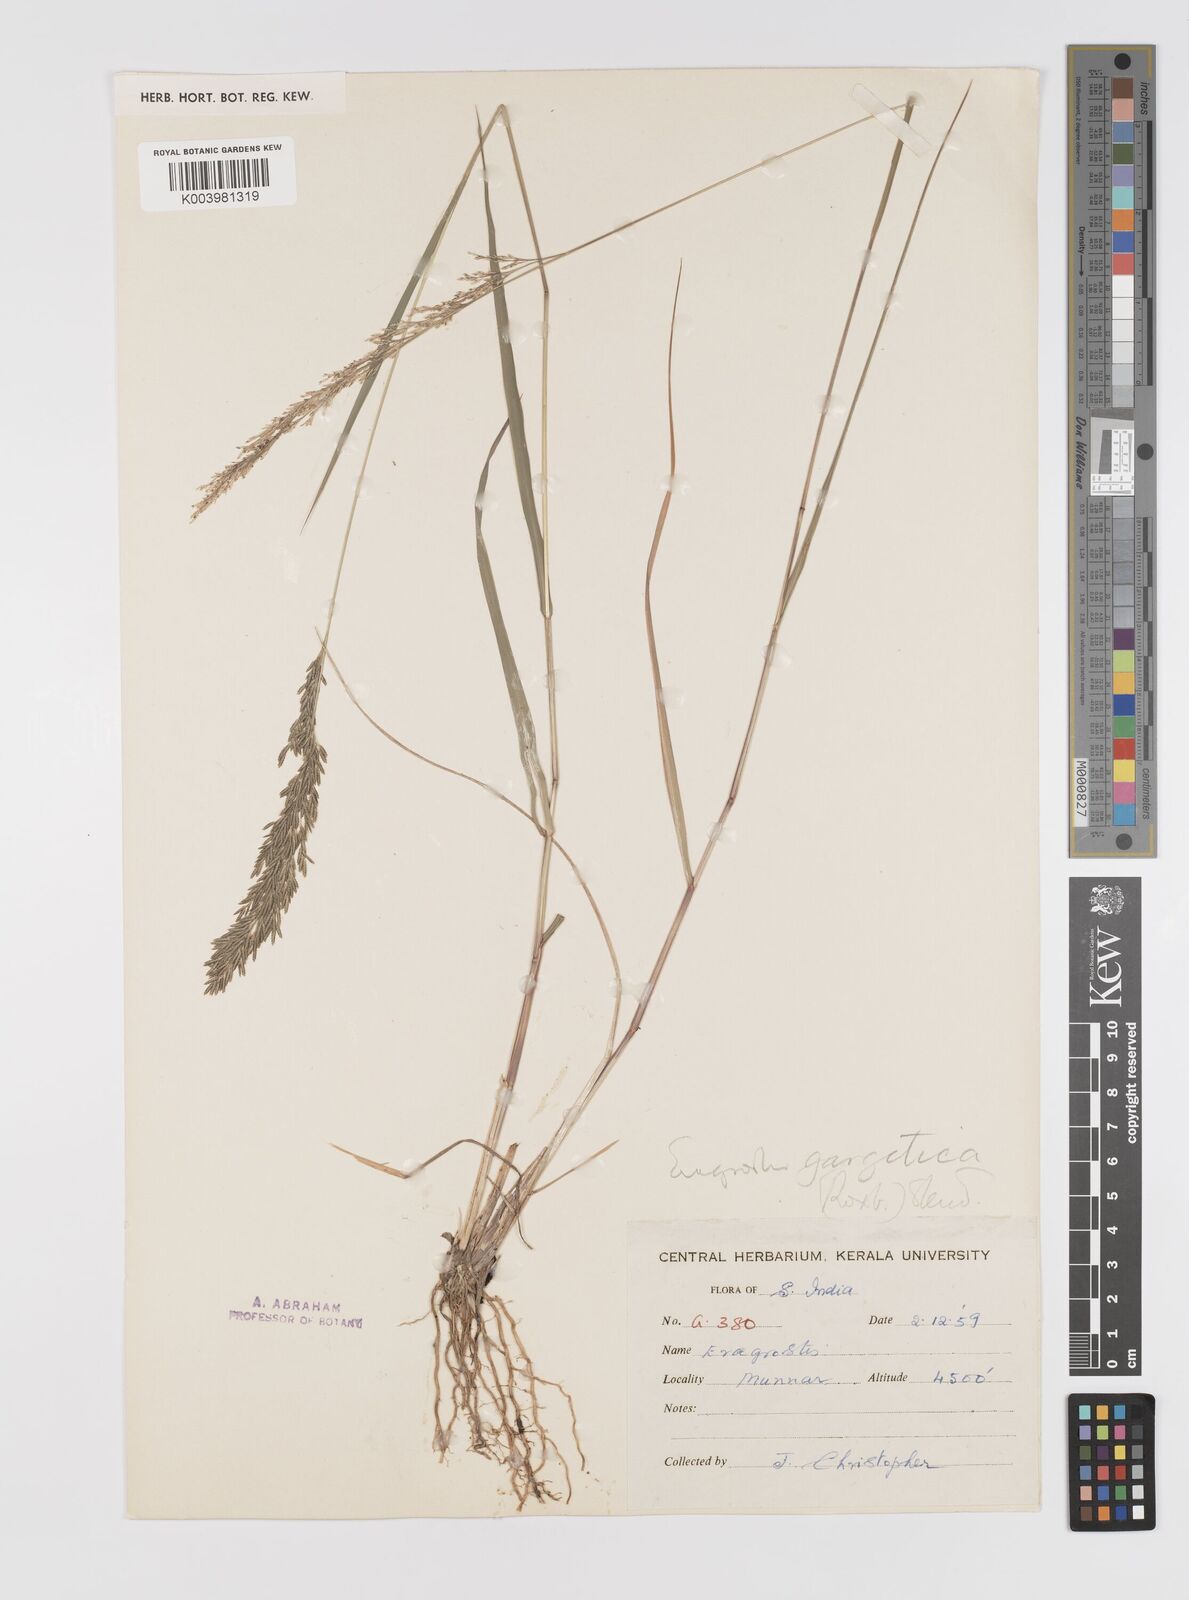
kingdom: Plantae
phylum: Tracheophyta
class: Liliopsida
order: Poales
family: Poaceae
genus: Eragrostis
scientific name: Eragrostis gangetica
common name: Slimflower lovegrass
